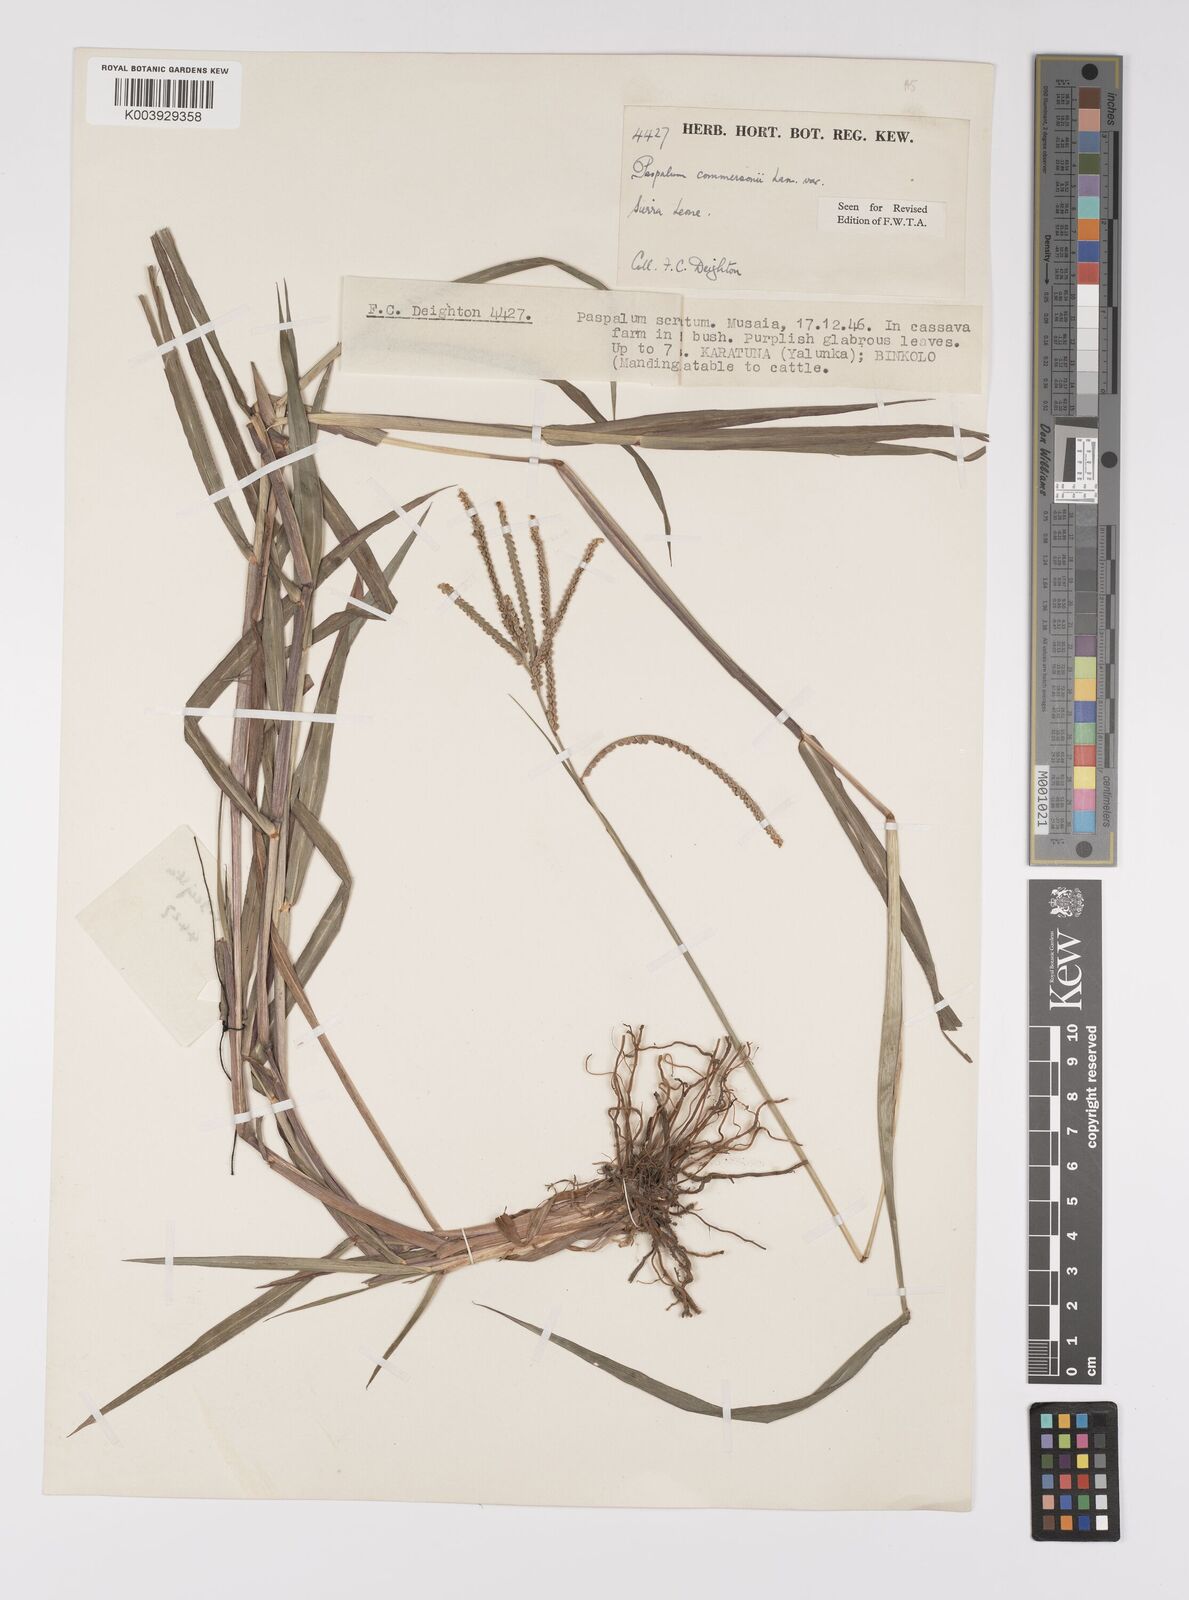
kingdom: Plantae
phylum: Tracheophyta
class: Liliopsida
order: Poales
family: Poaceae
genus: Paspalum
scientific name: Paspalum scrobiculatum
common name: Kodo millet
